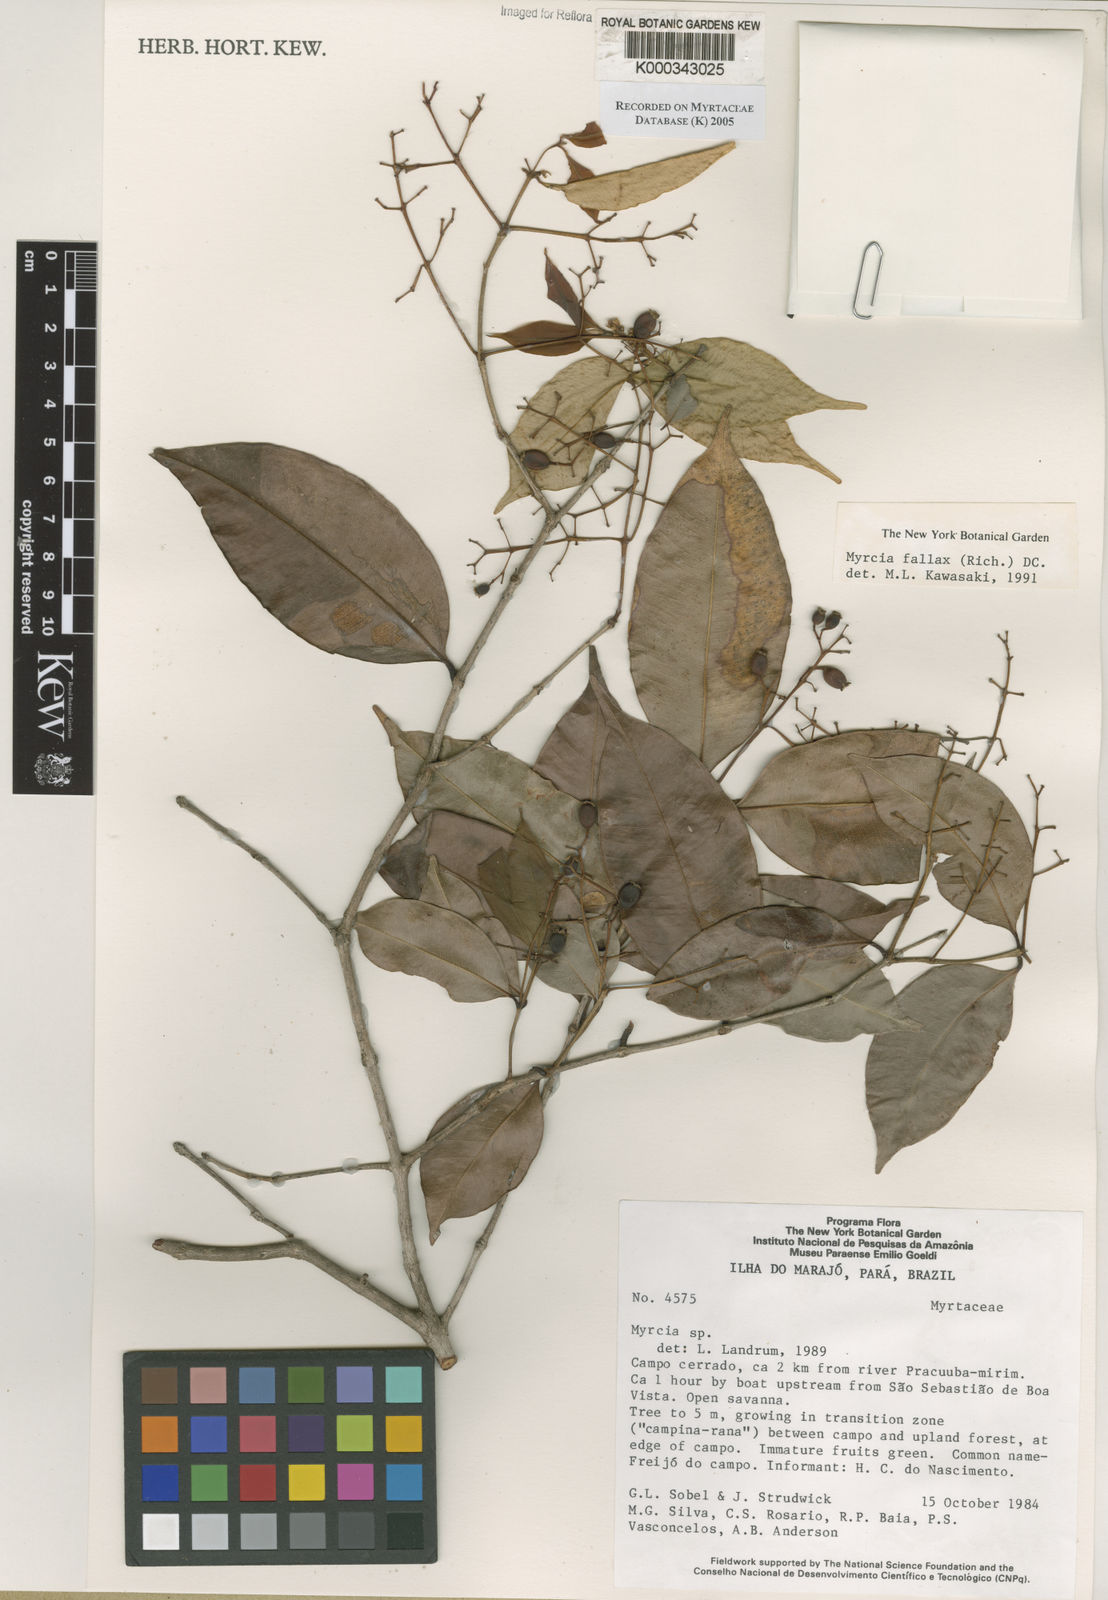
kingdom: Plantae
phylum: Tracheophyta
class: Magnoliopsida
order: Myrtales
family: Myrtaceae
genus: Myrcia
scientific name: Myrcia splendens
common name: Surinam cherry
